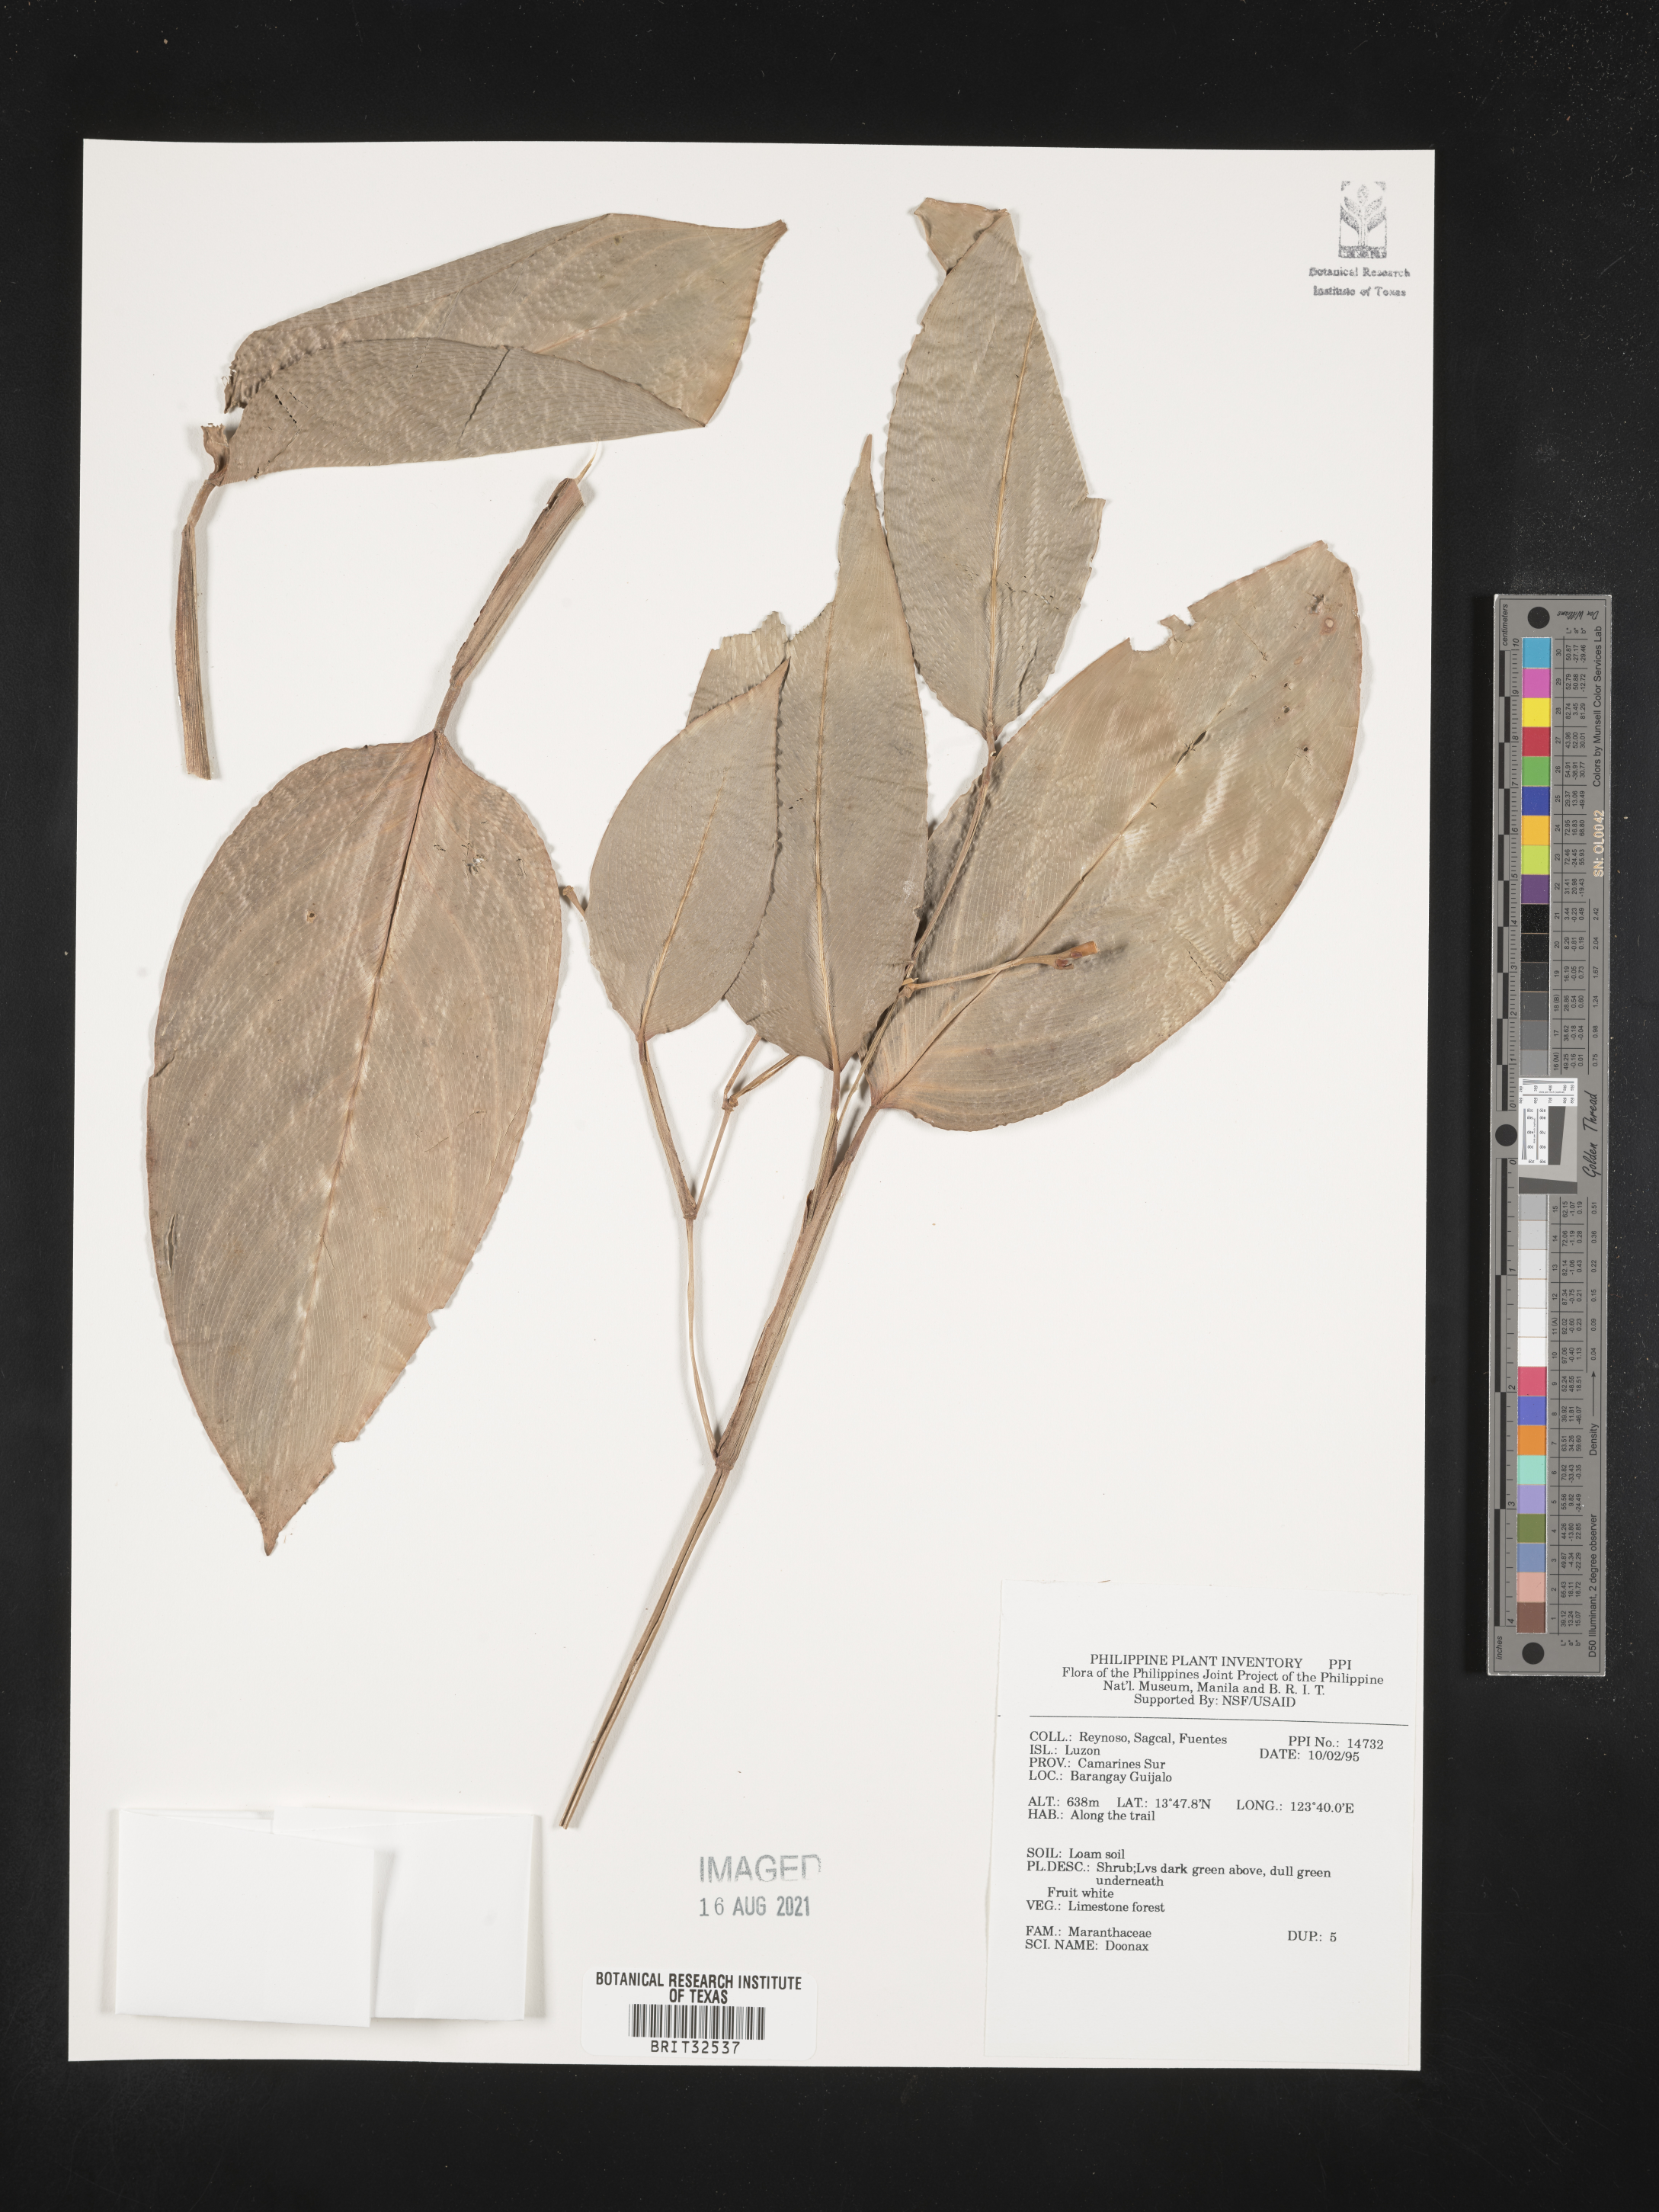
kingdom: Plantae
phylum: Tracheophyta
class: Liliopsida
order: Zingiberales
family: Marantaceae
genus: Donax
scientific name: Donax
